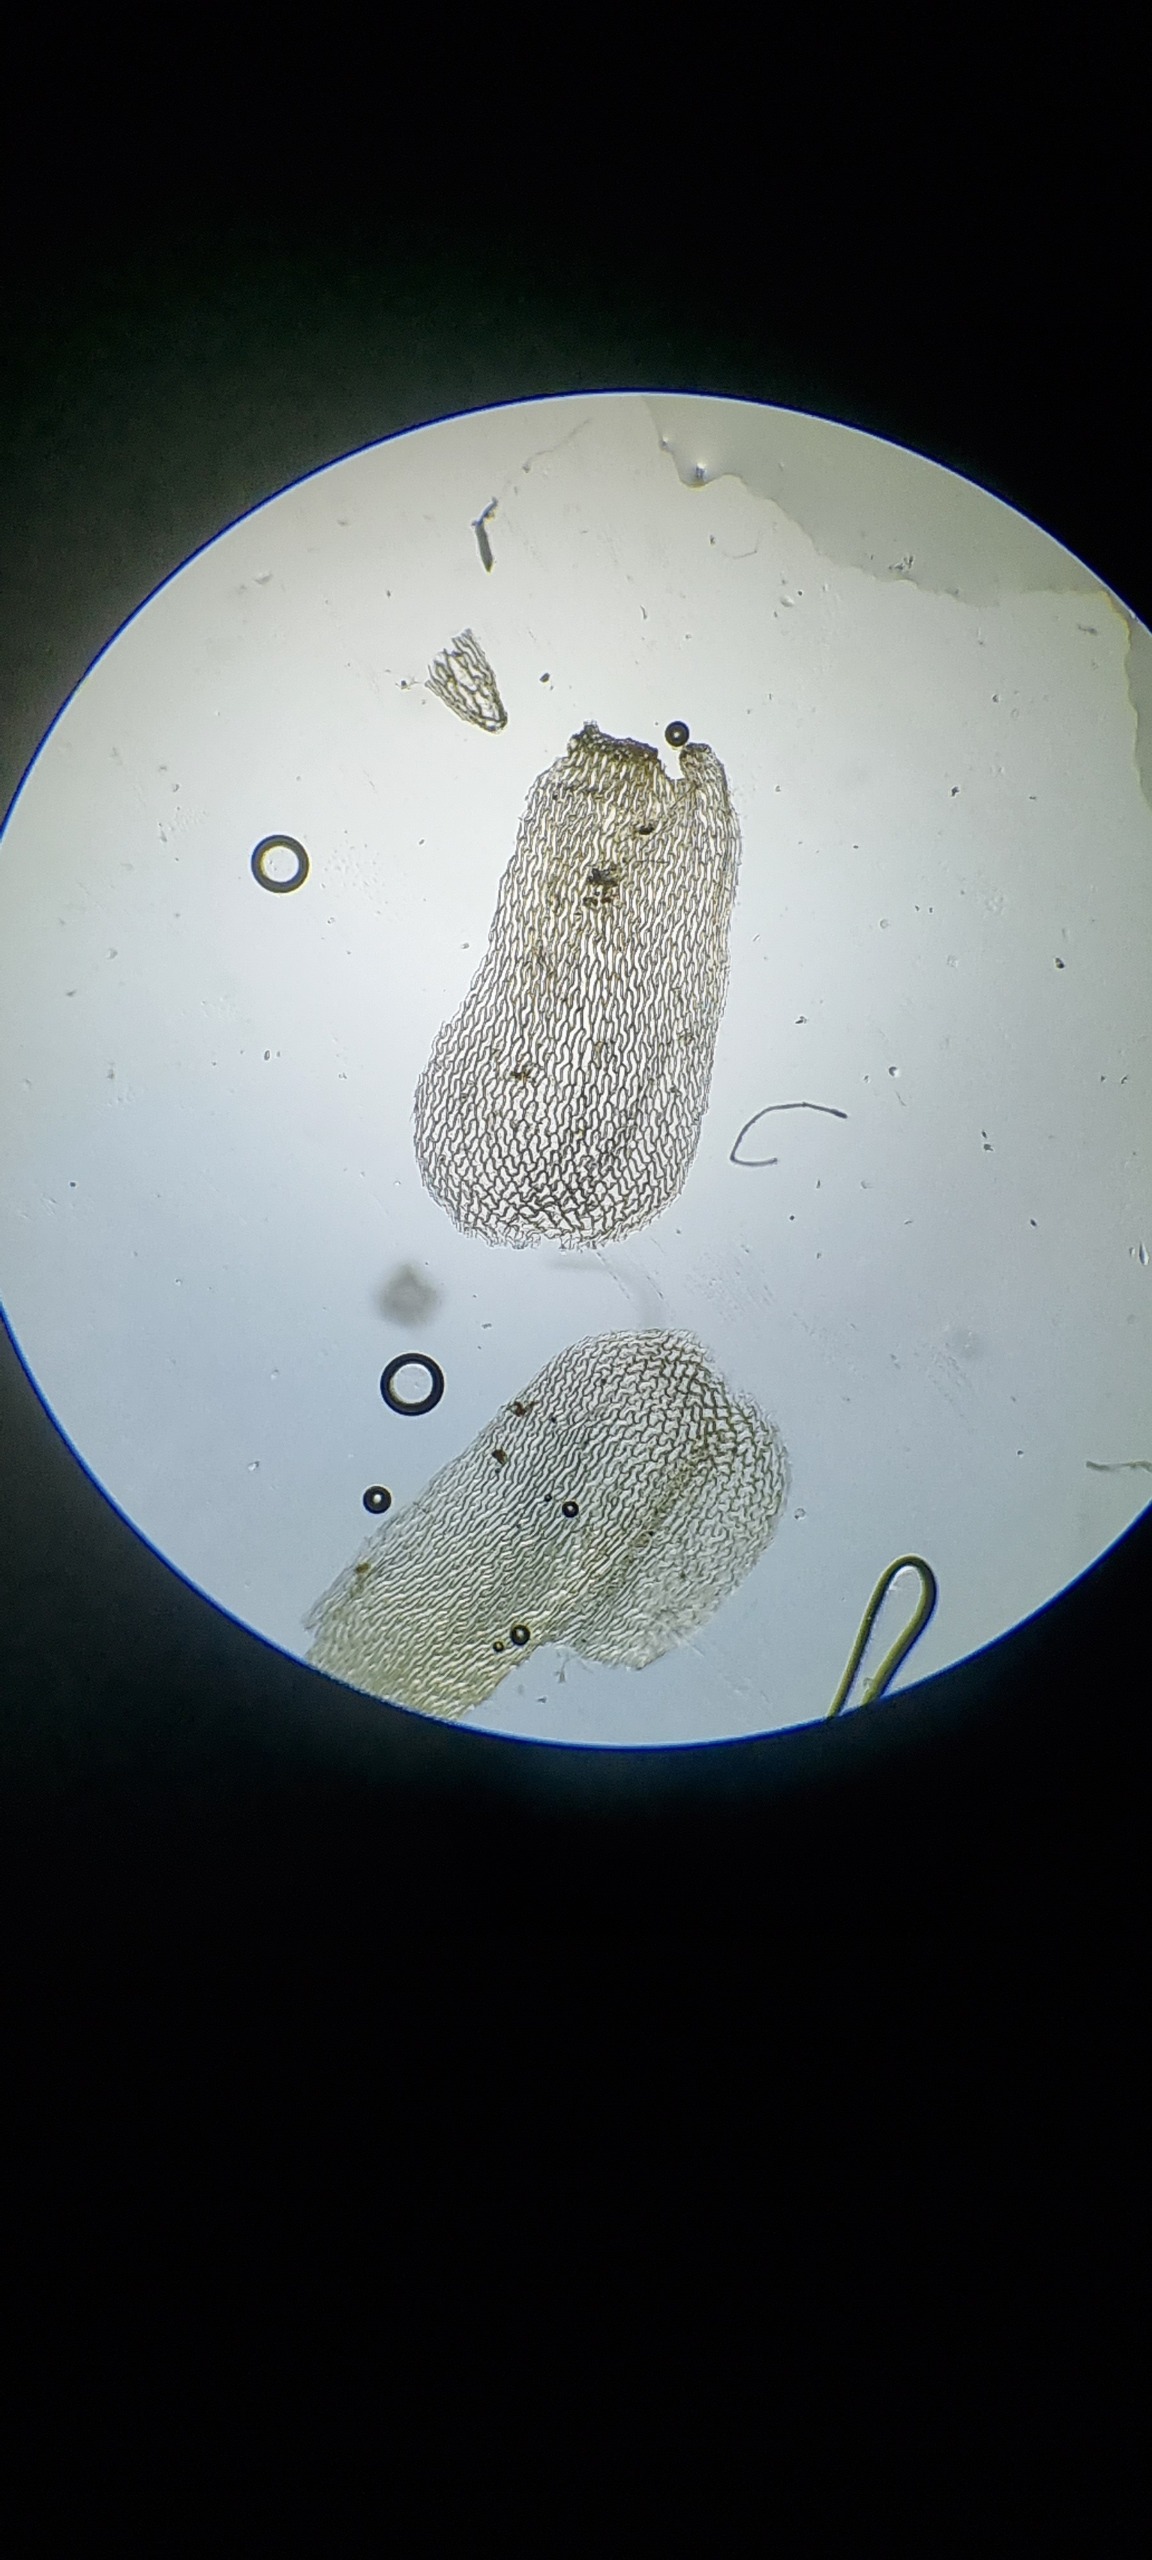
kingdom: Plantae
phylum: Bryophyta
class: Sphagnopsida
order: Sphagnales
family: Sphagnaceae
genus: Sphagnum
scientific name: Sphagnum
